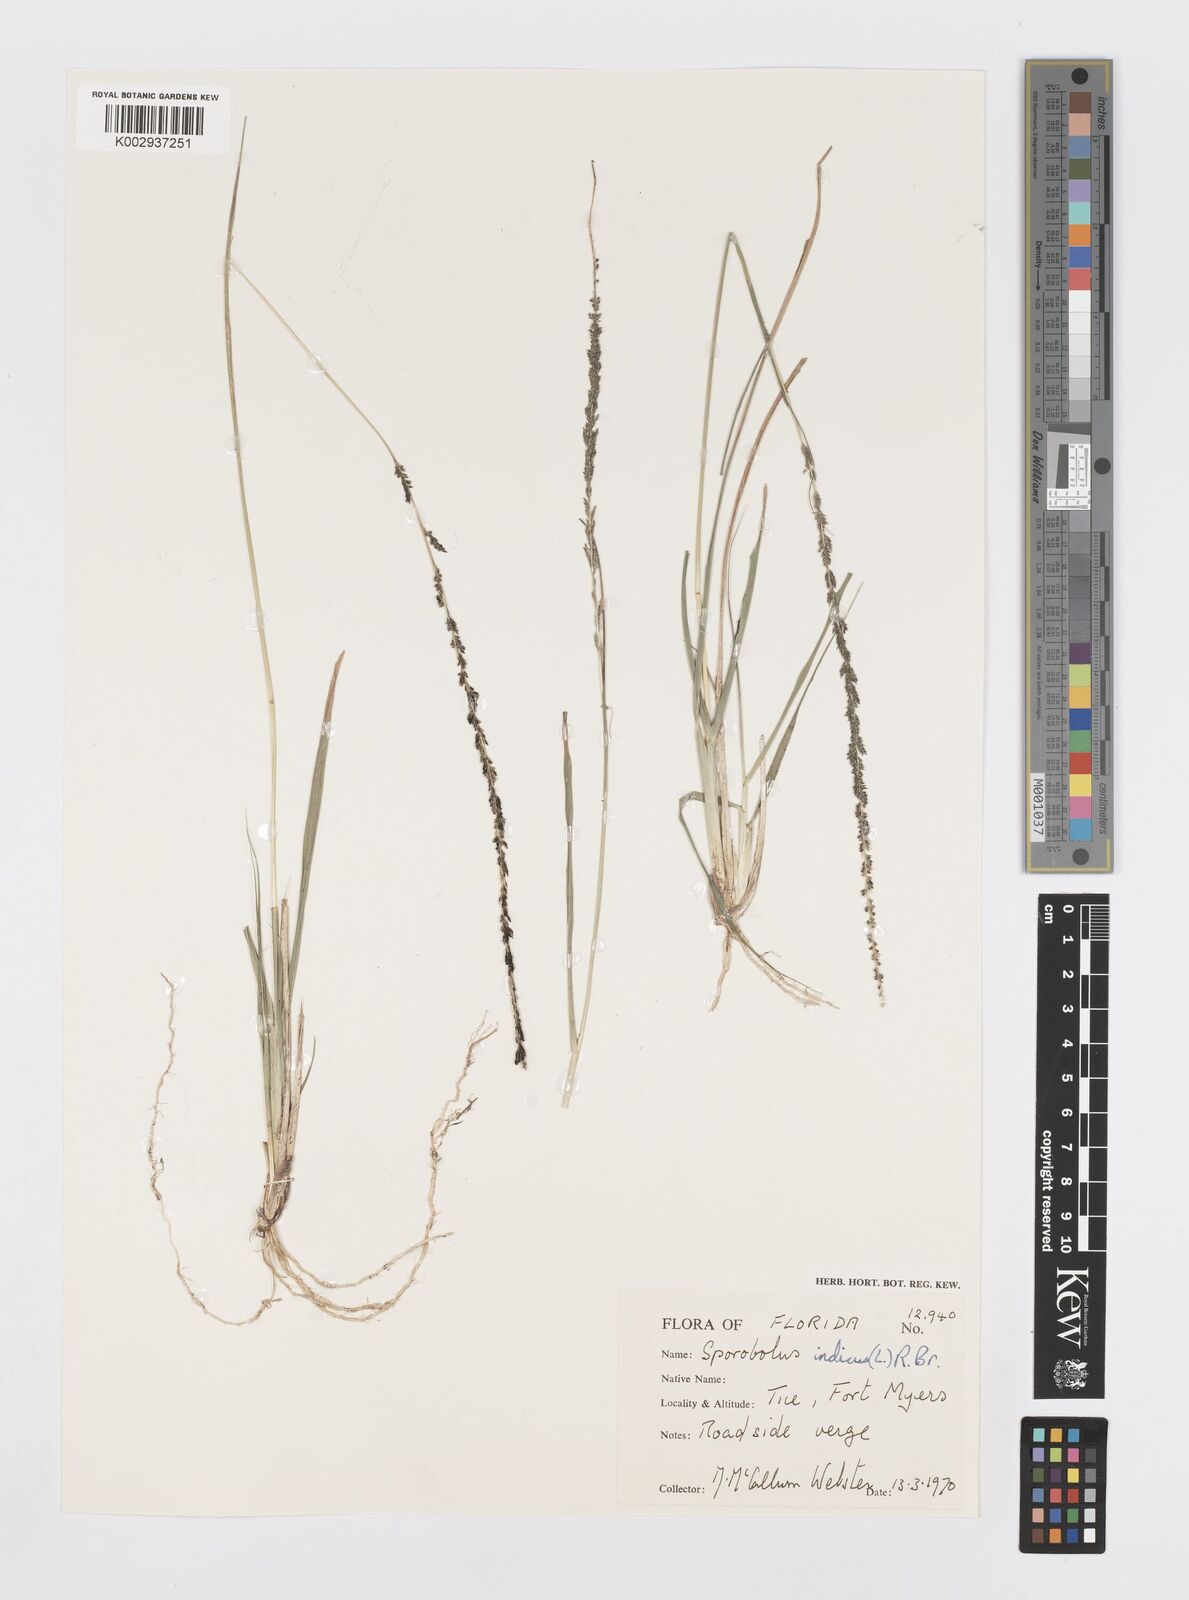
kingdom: Plantae
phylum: Tracheophyta
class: Liliopsida
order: Poales
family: Poaceae
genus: Sporobolus
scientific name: Sporobolus indicus
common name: Smut grass
